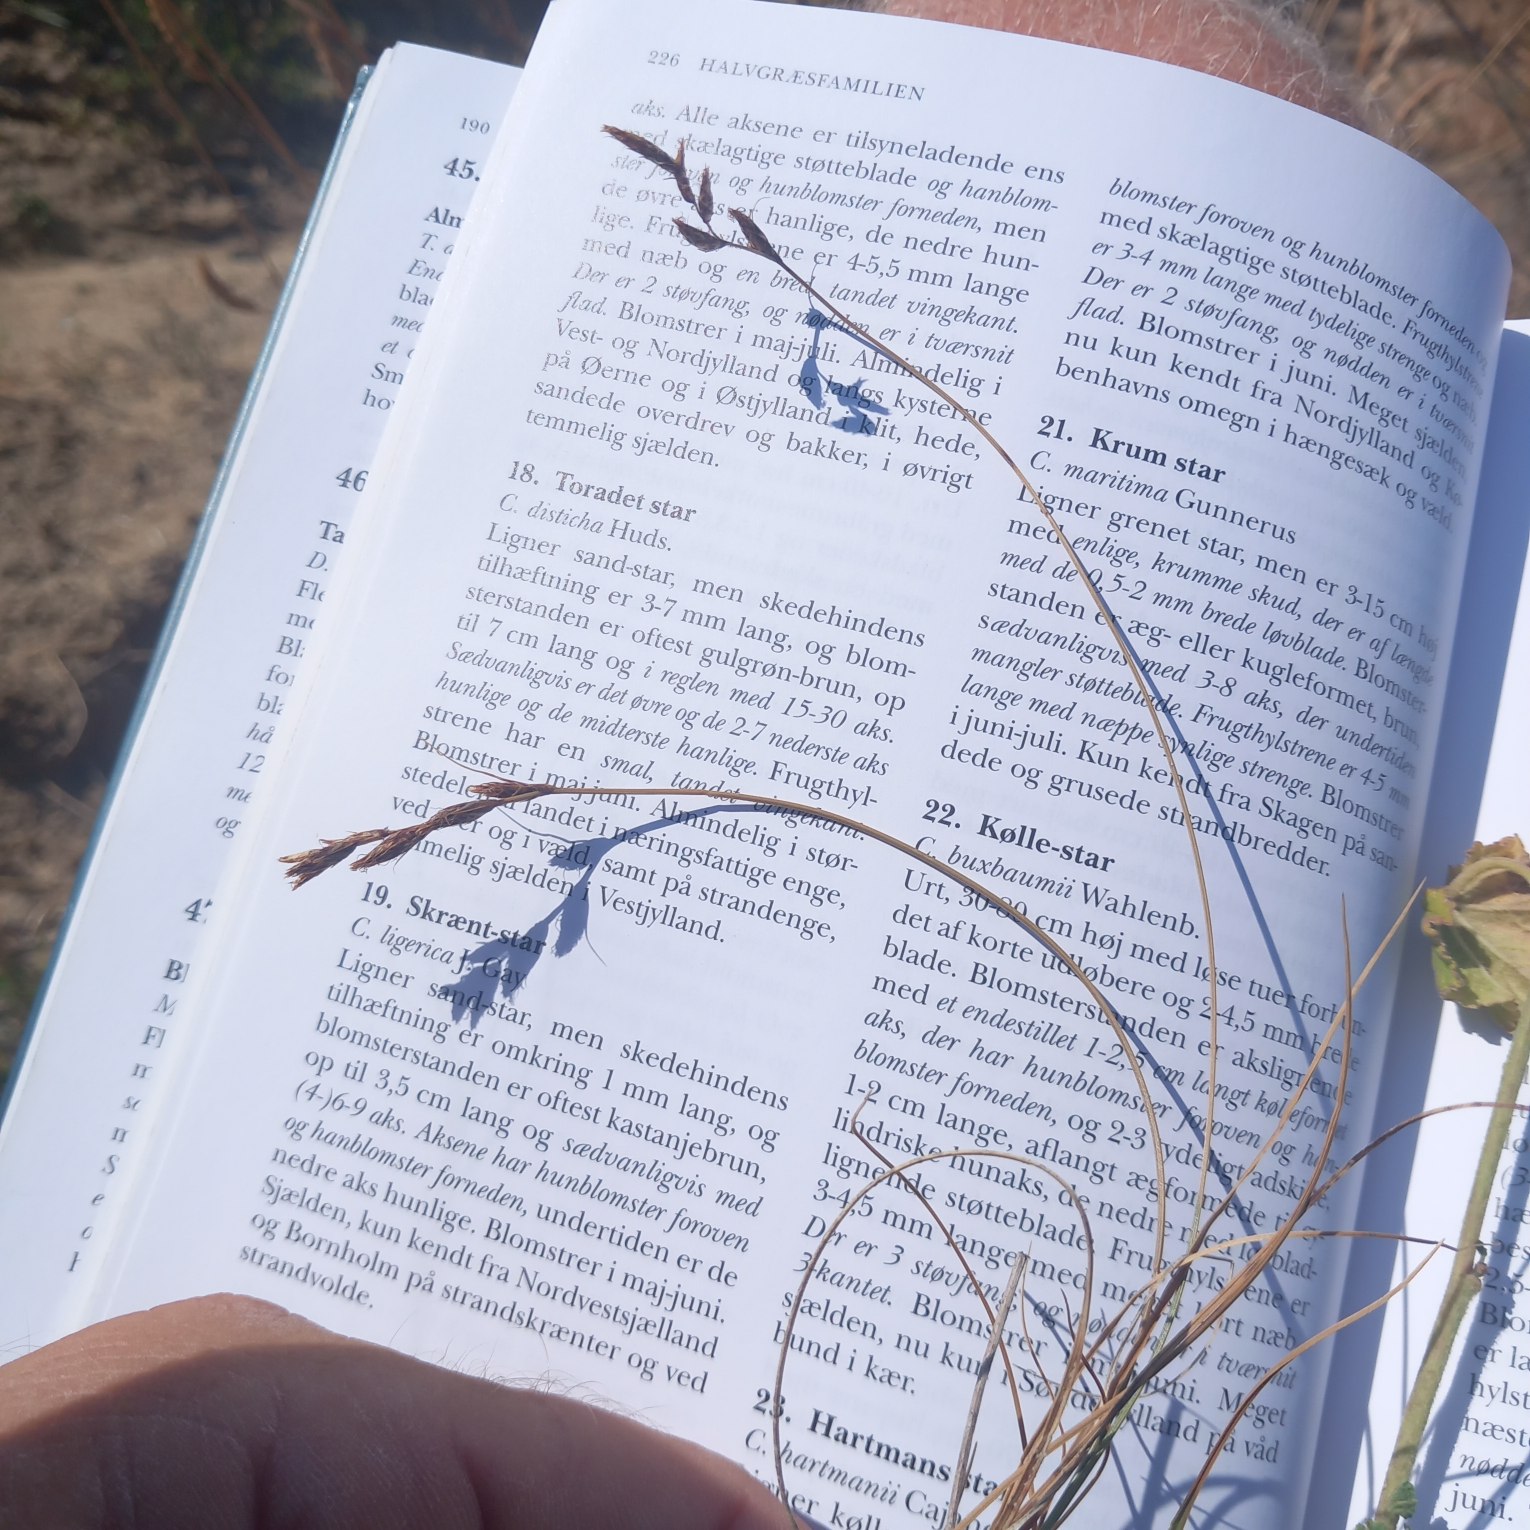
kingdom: Plantae
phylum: Tracheophyta
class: Liliopsida
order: Poales
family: Cyperaceae
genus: Carex
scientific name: Carex colchica
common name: Skrænt-star
